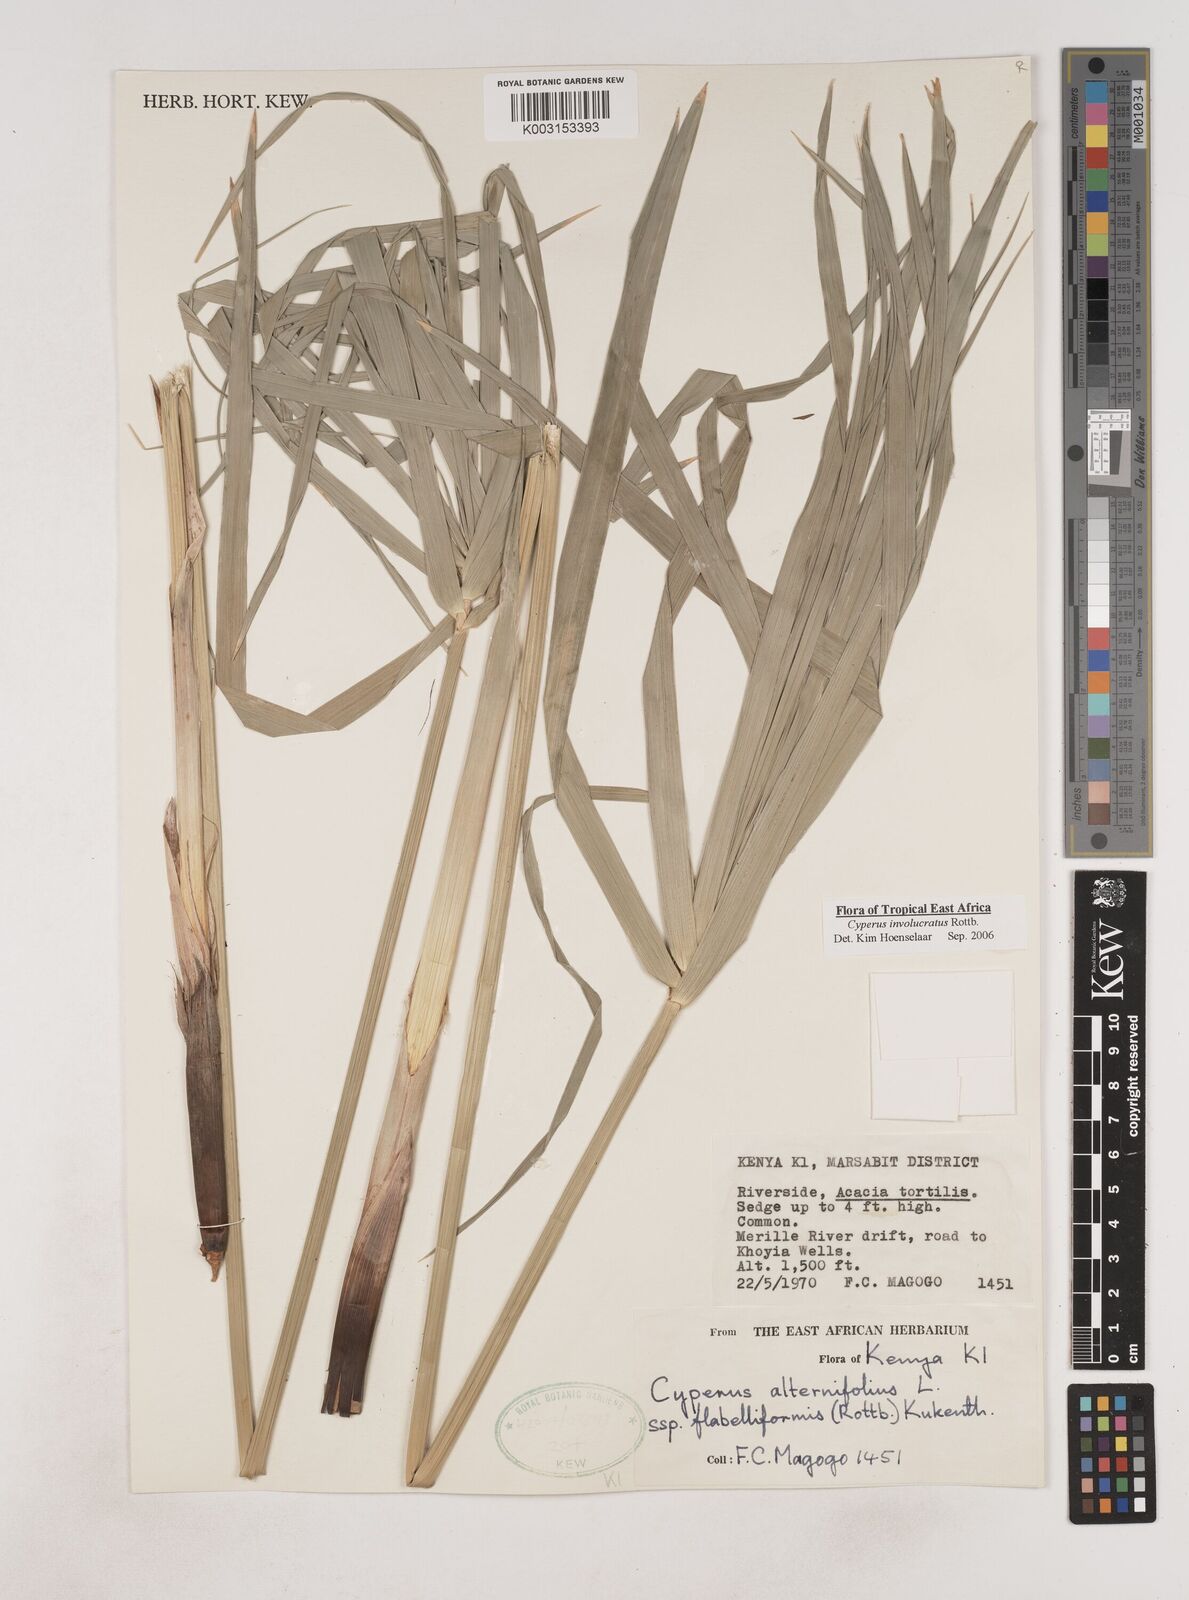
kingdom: Plantae
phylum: Tracheophyta
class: Liliopsida
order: Poales
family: Cyperaceae
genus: Cyperus
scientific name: Cyperus alternifolius
